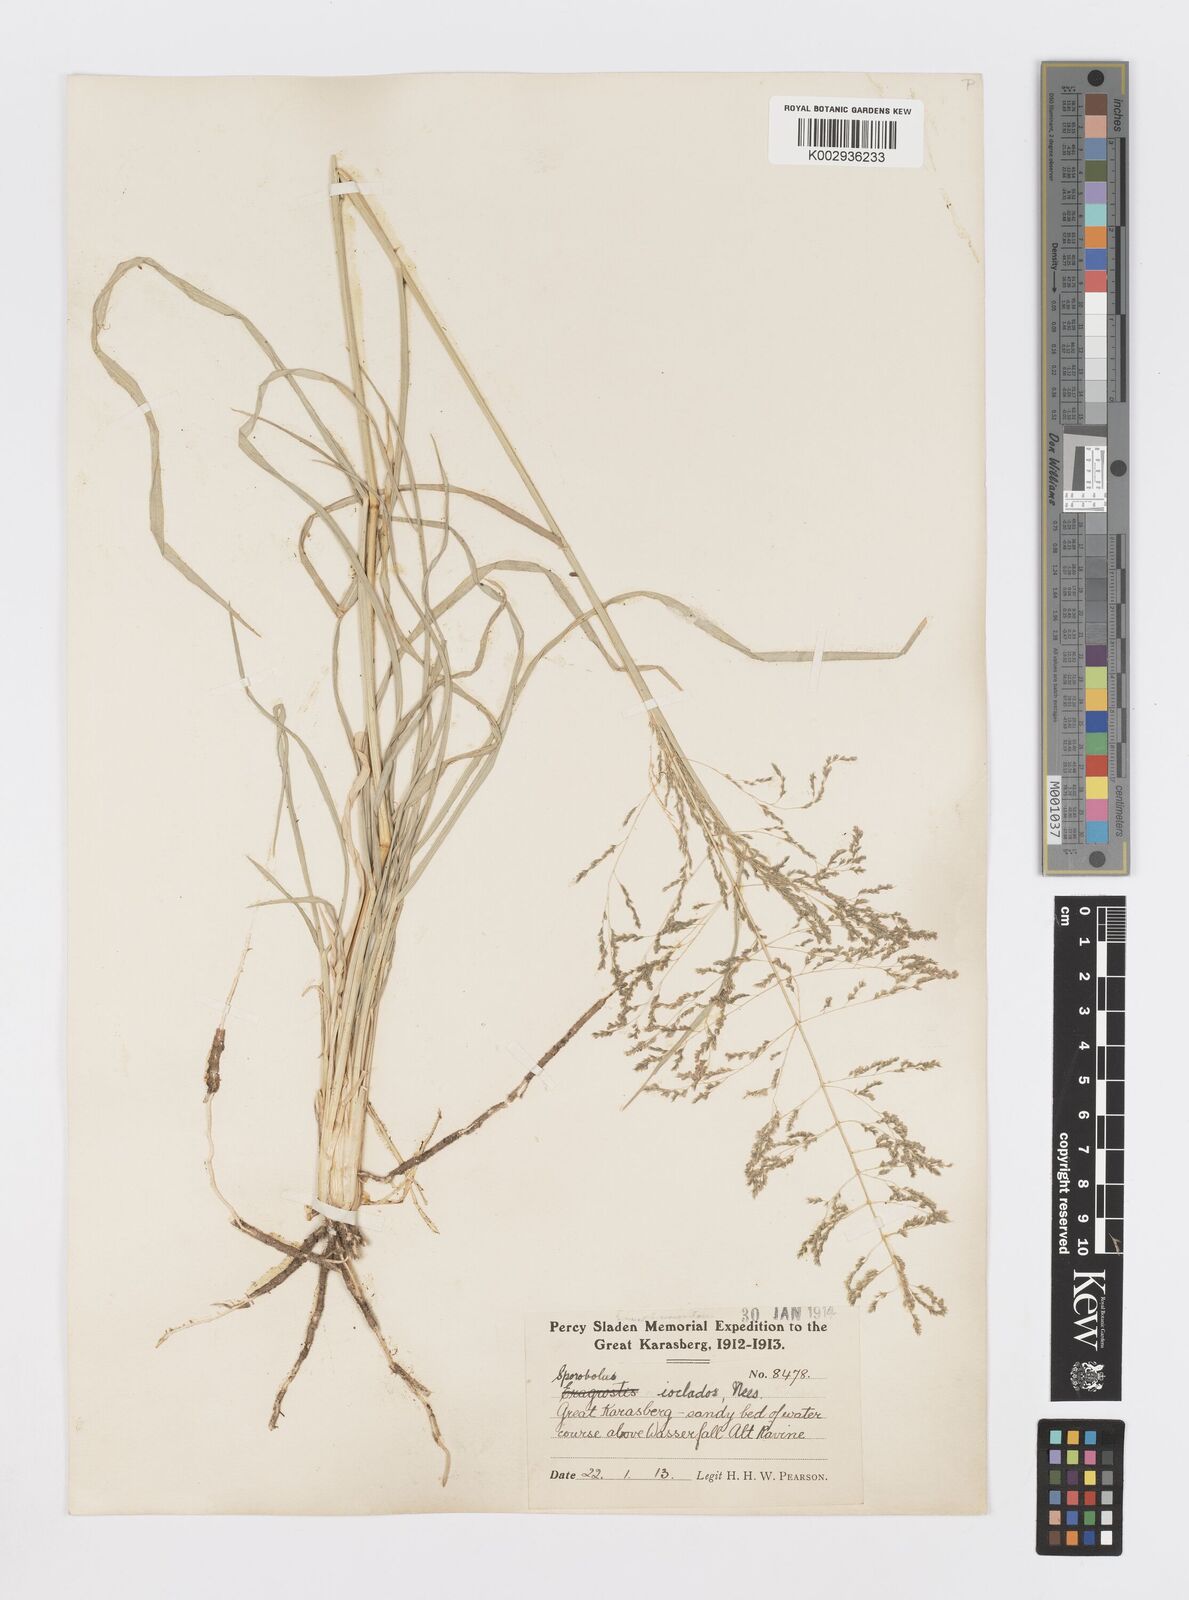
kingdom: Plantae
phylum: Tracheophyta
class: Liliopsida
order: Poales
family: Poaceae
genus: Sporobolus
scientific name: Sporobolus ioclados
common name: Pan dropseed
